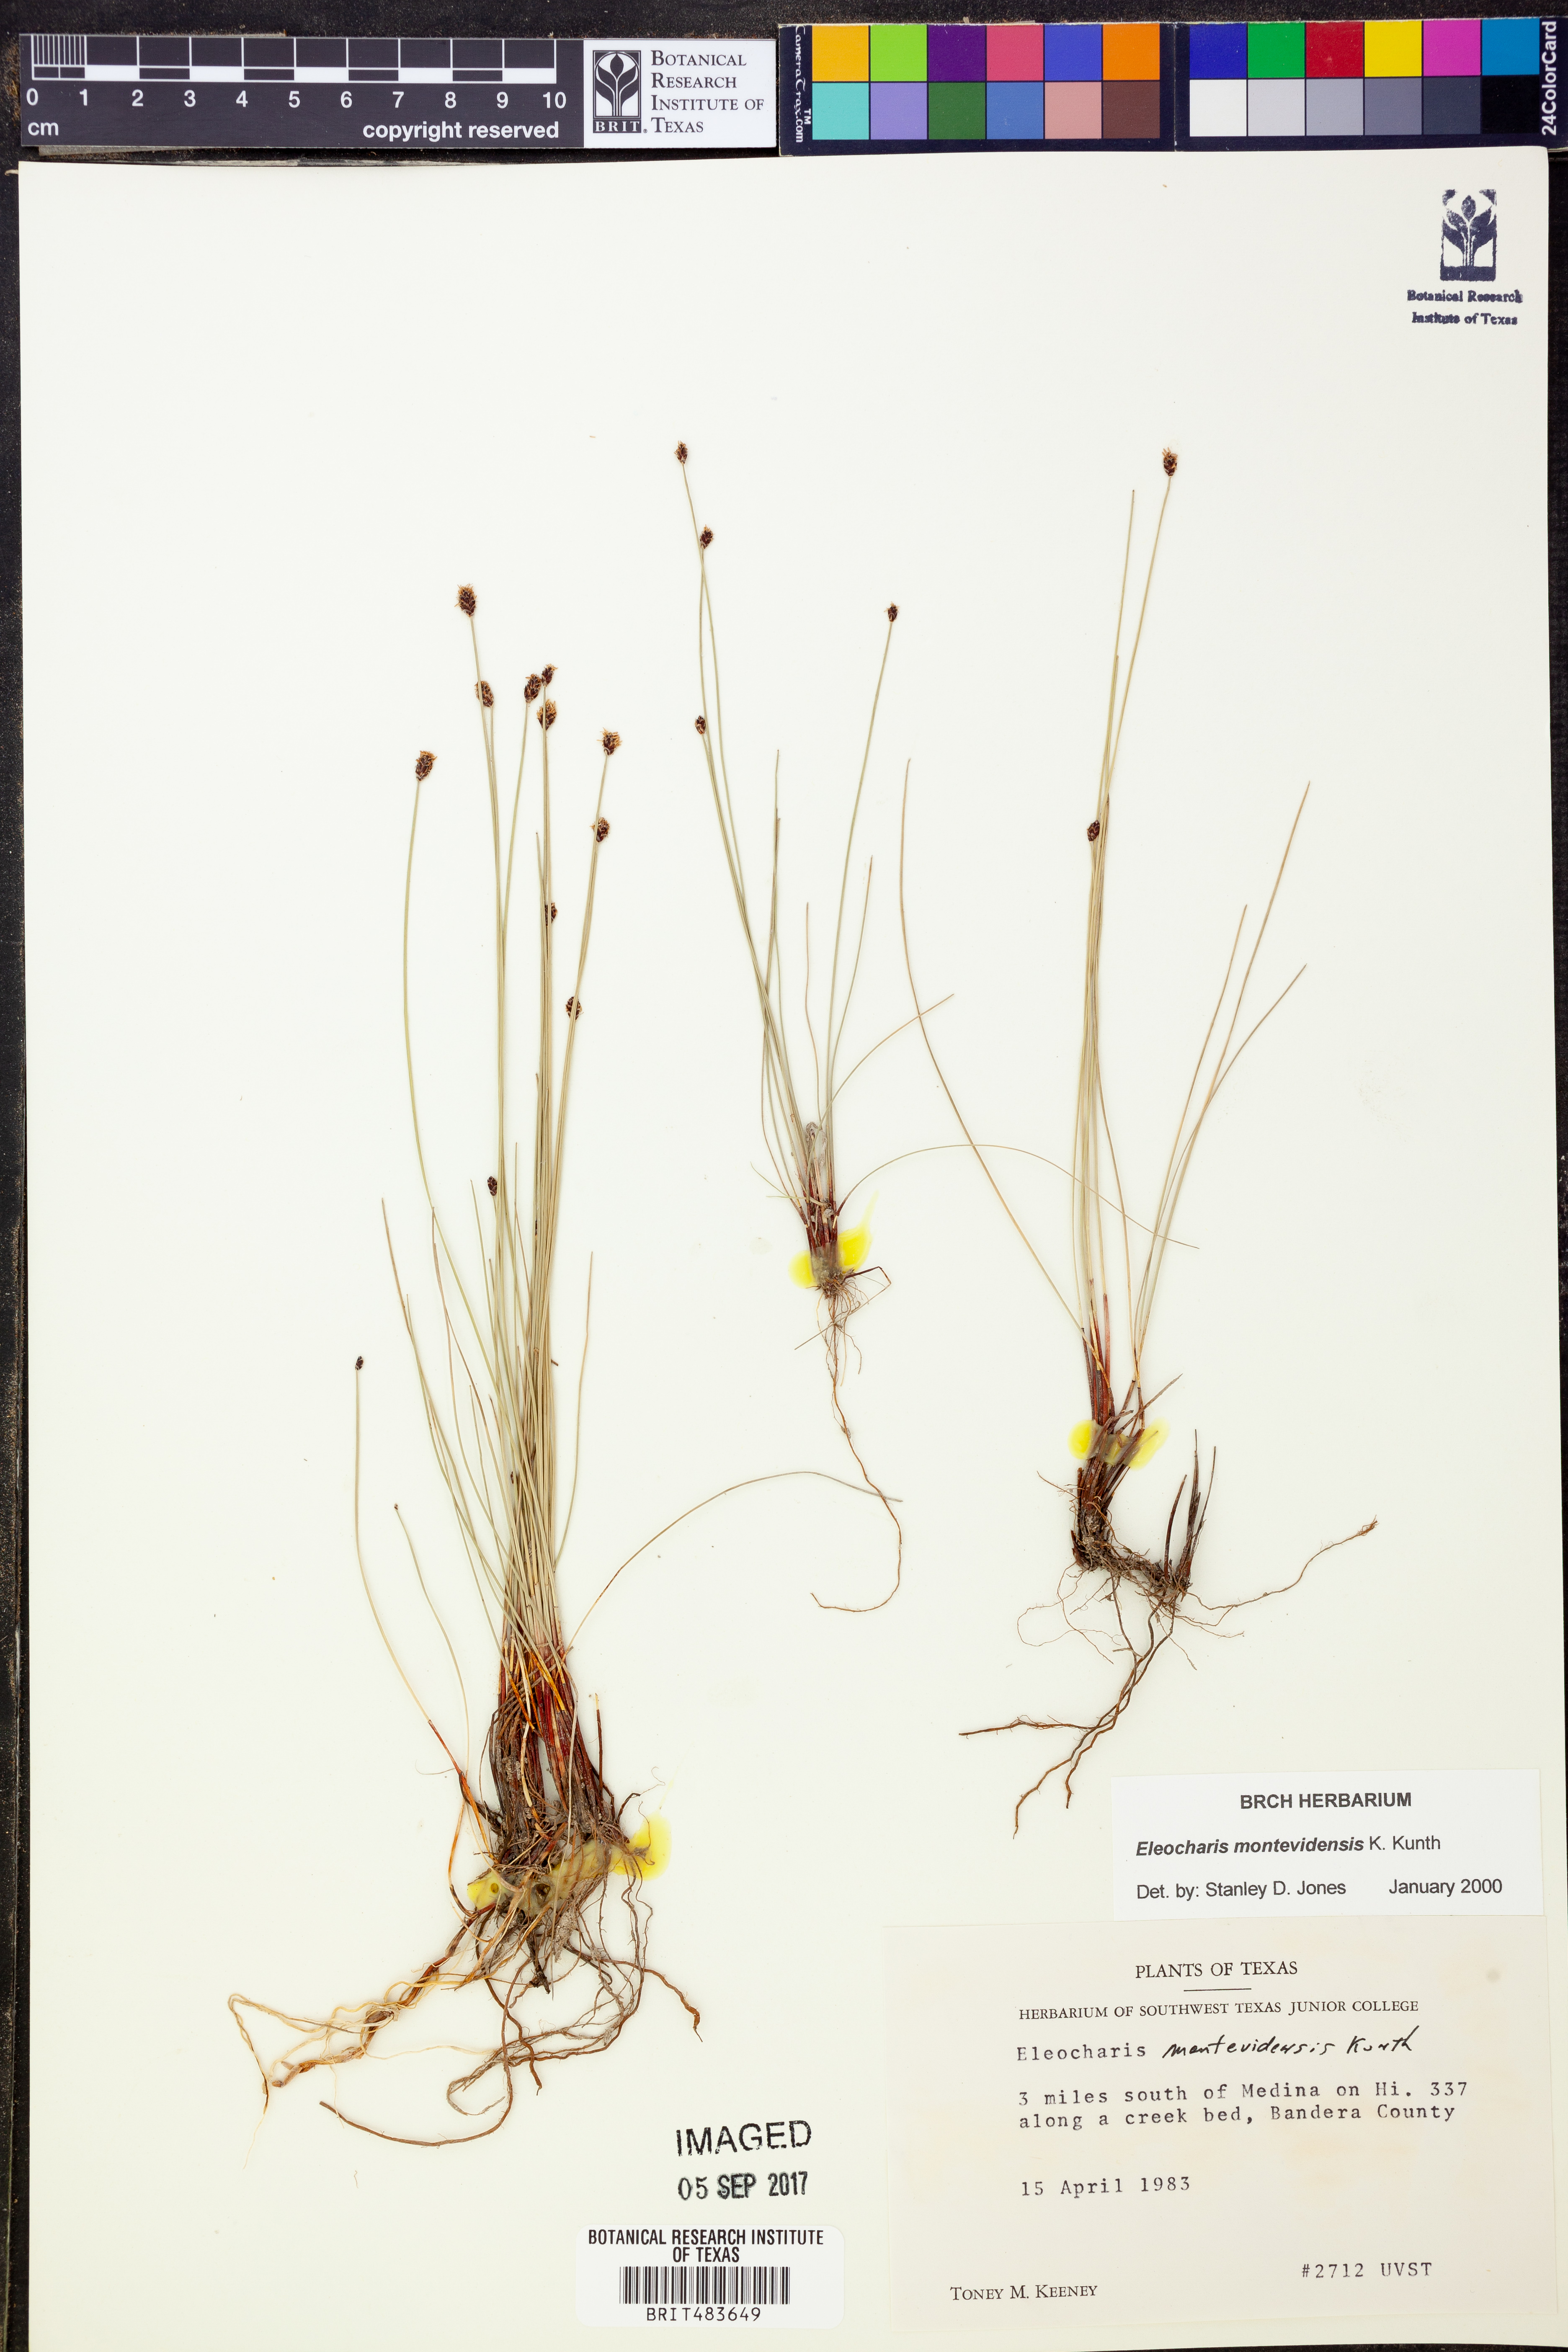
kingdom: Plantae
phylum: Tracheophyta
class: Liliopsida
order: Poales
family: Cyperaceae
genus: Eleocharis
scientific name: Eleocharis montevidensis
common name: Sand spike-rush
